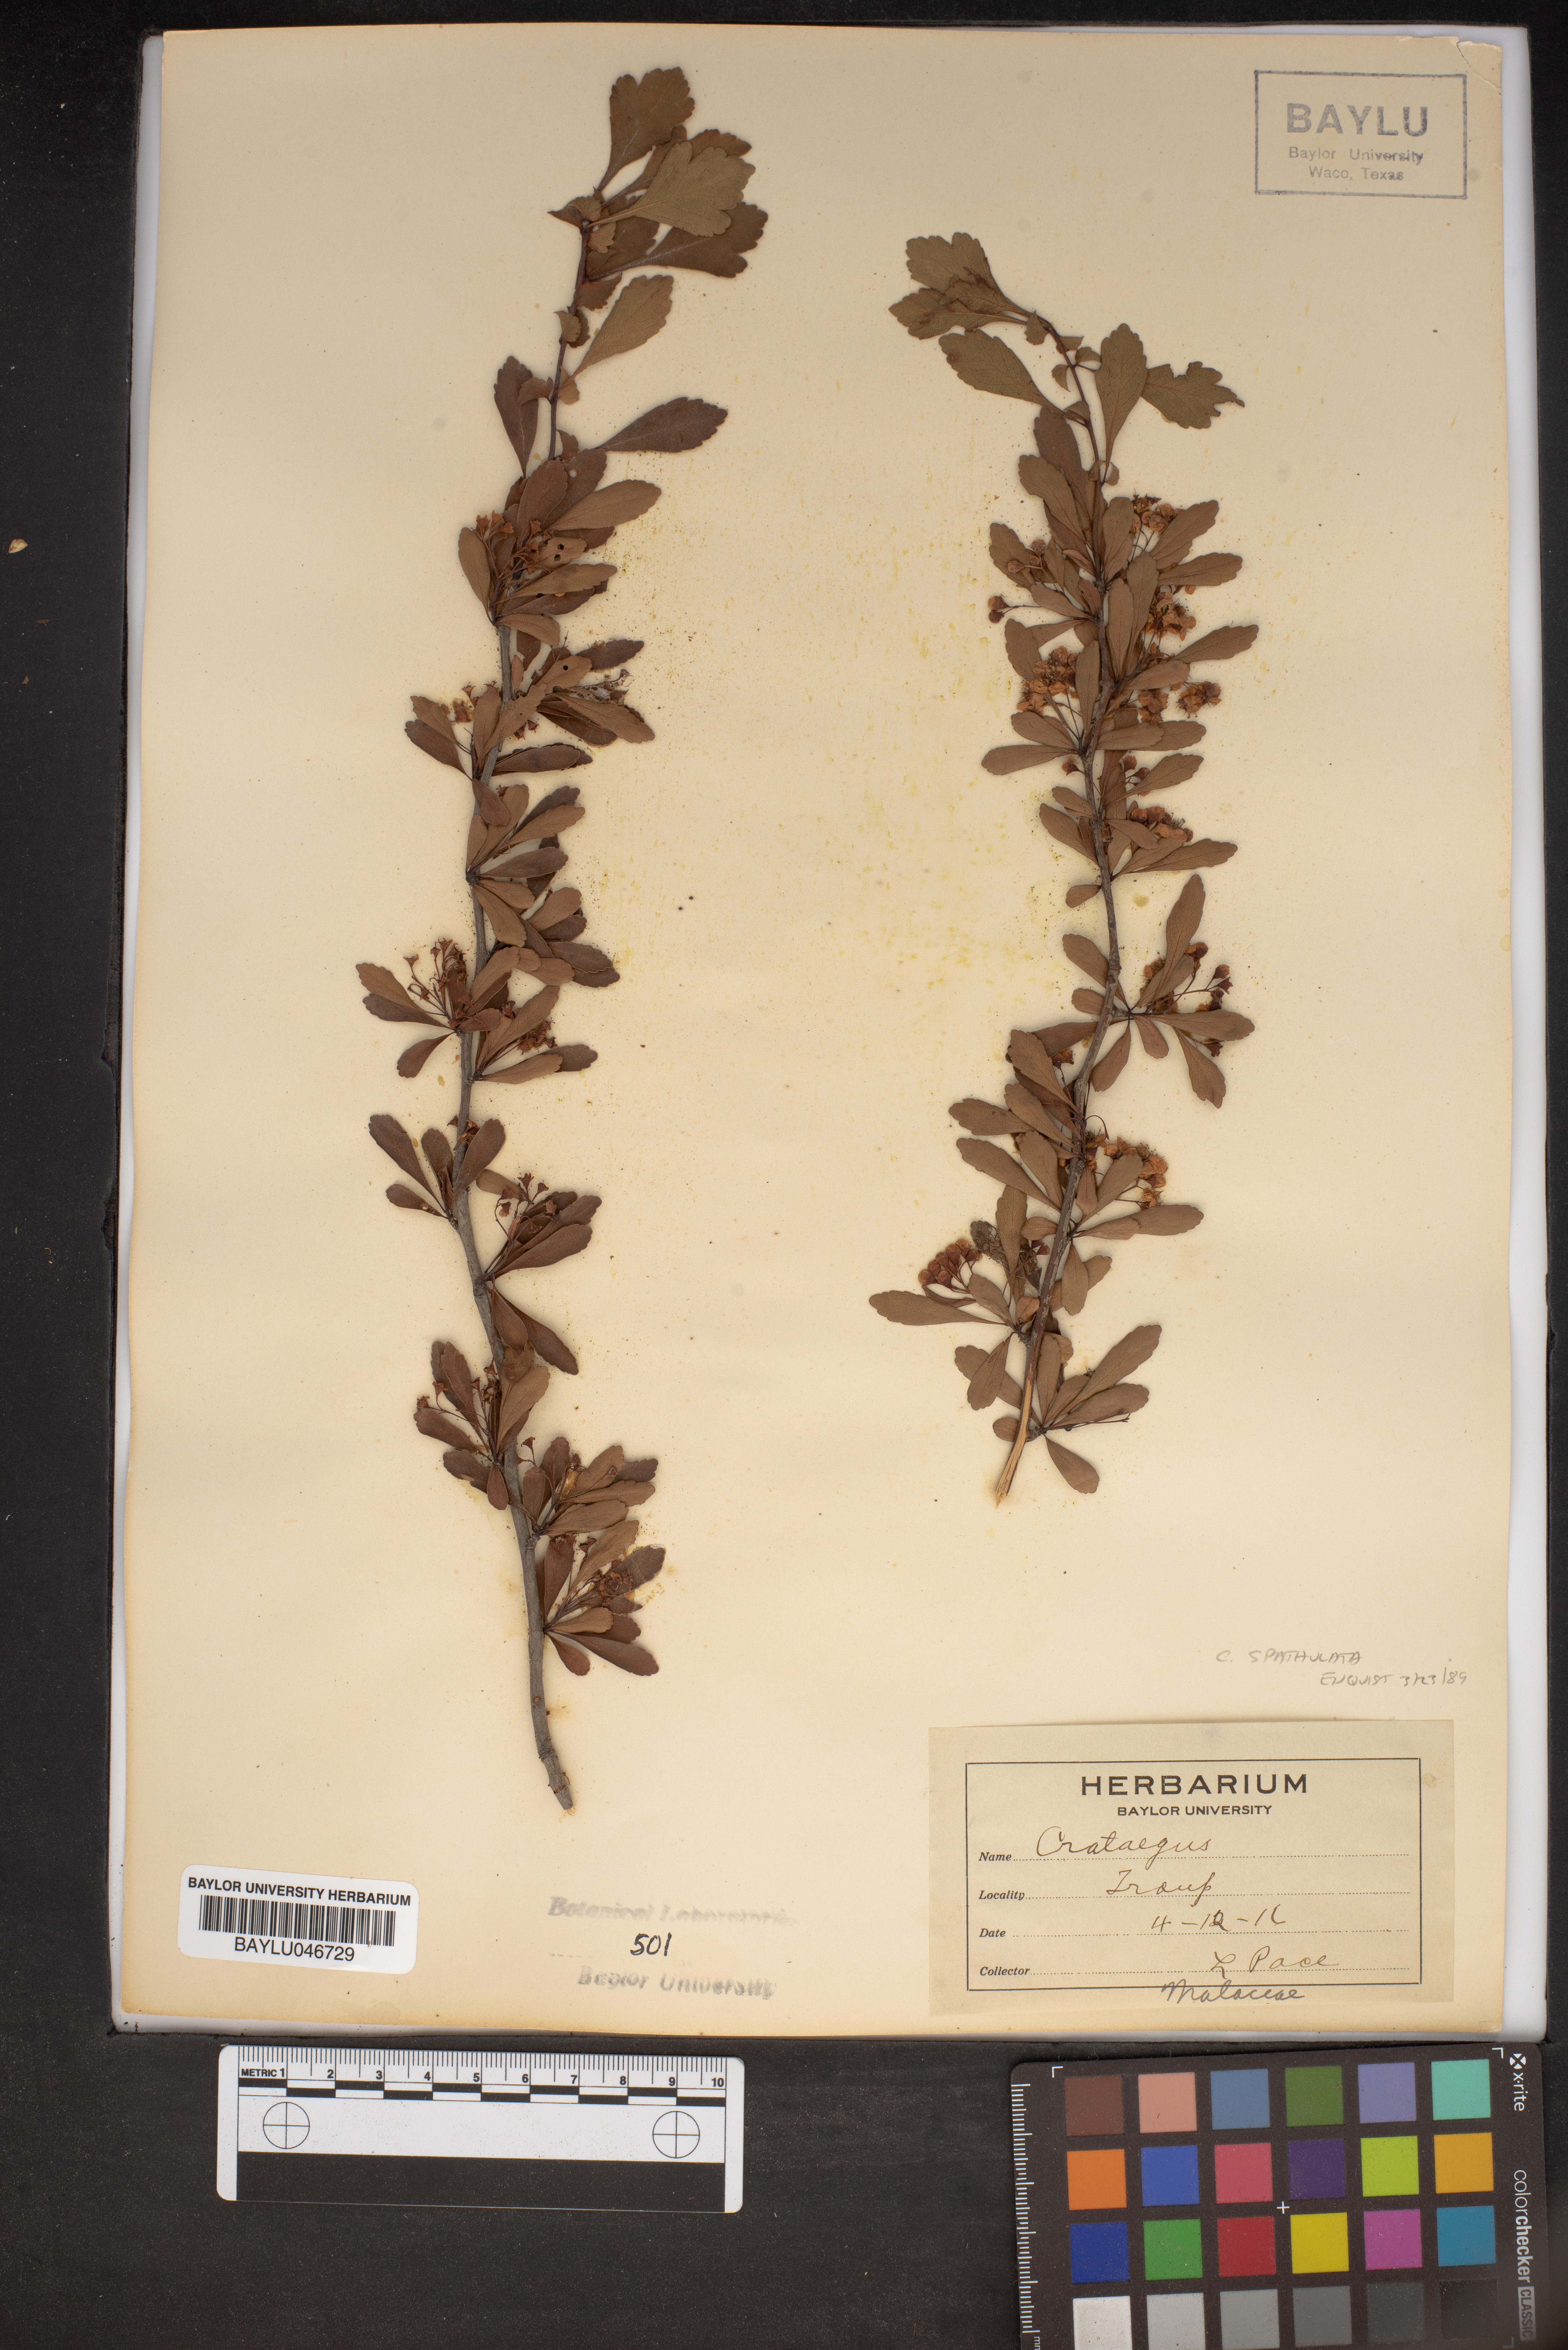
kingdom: Plantae
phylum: Tracheophyta
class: Magnoliopsida
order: Rosales
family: Rosaceae
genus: Crataegus
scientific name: Crataegus spathulata
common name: Littlehip hawthorn
